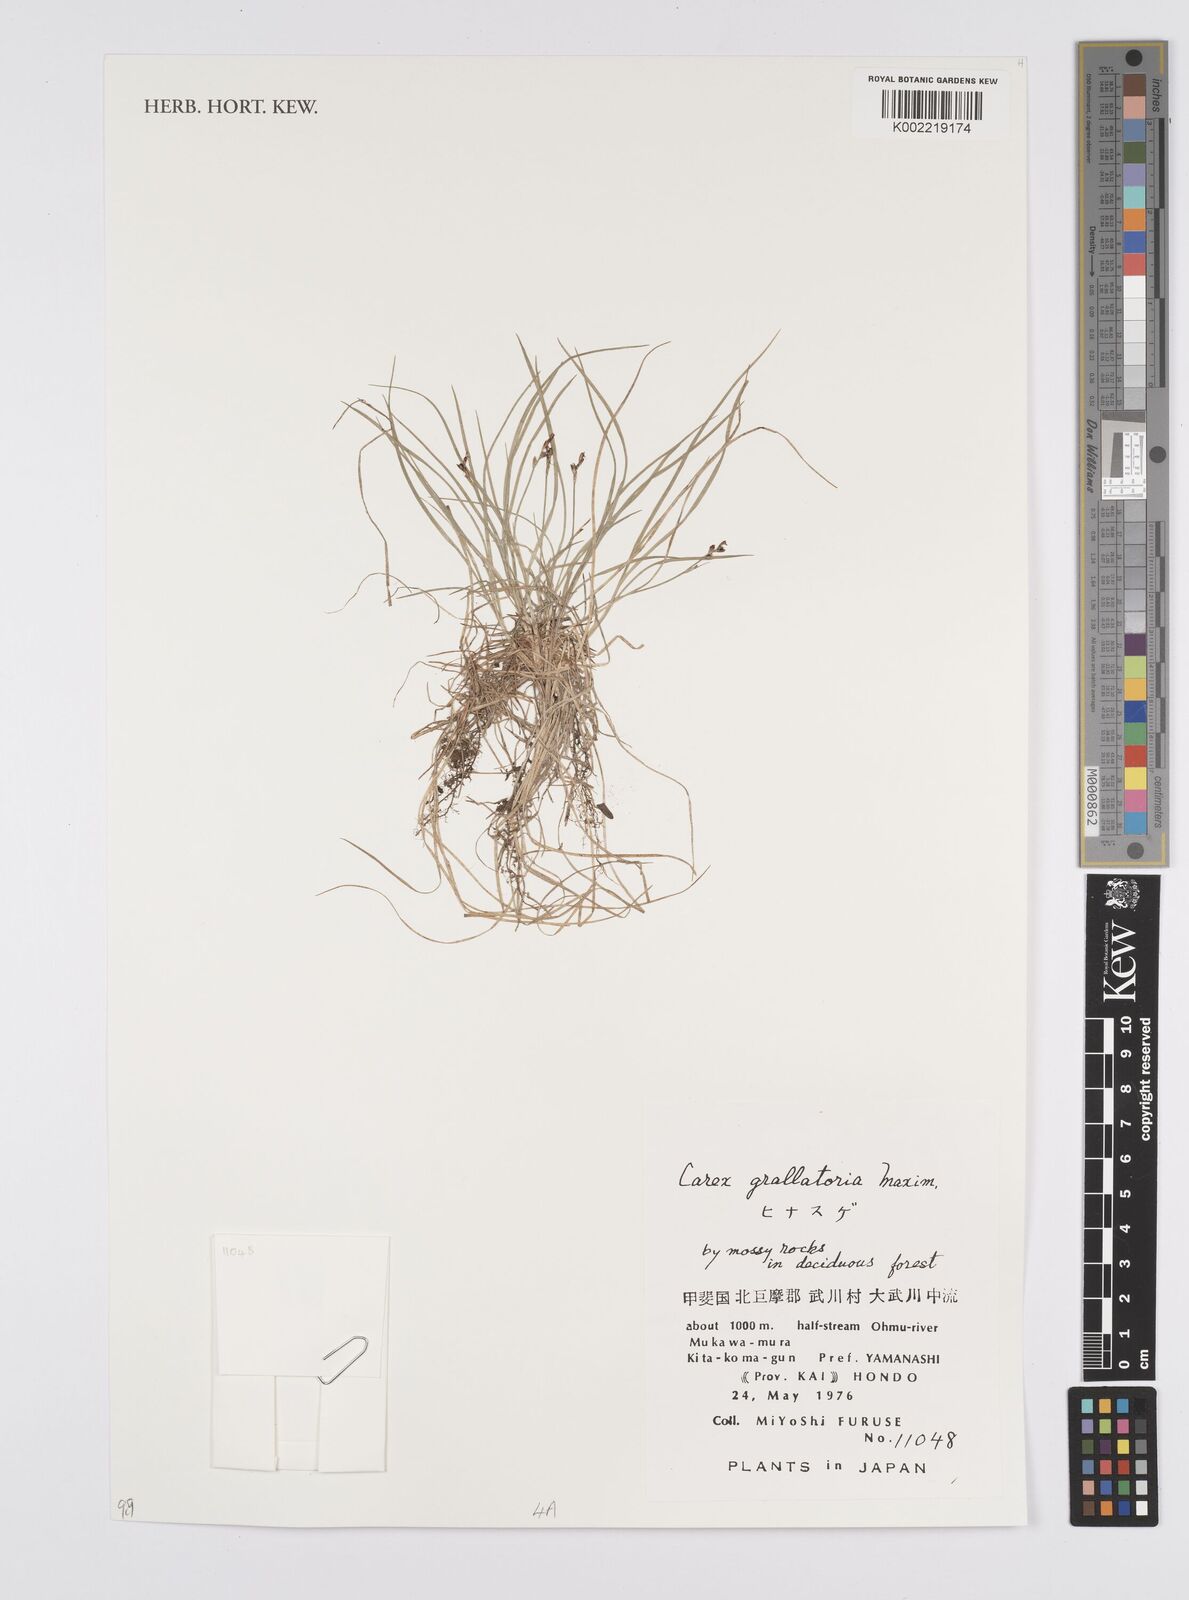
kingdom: Plantae
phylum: Tracheophyta
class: Liliopsida
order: Poales
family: Cyperaceae
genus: Carex
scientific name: Carex grallatoria
